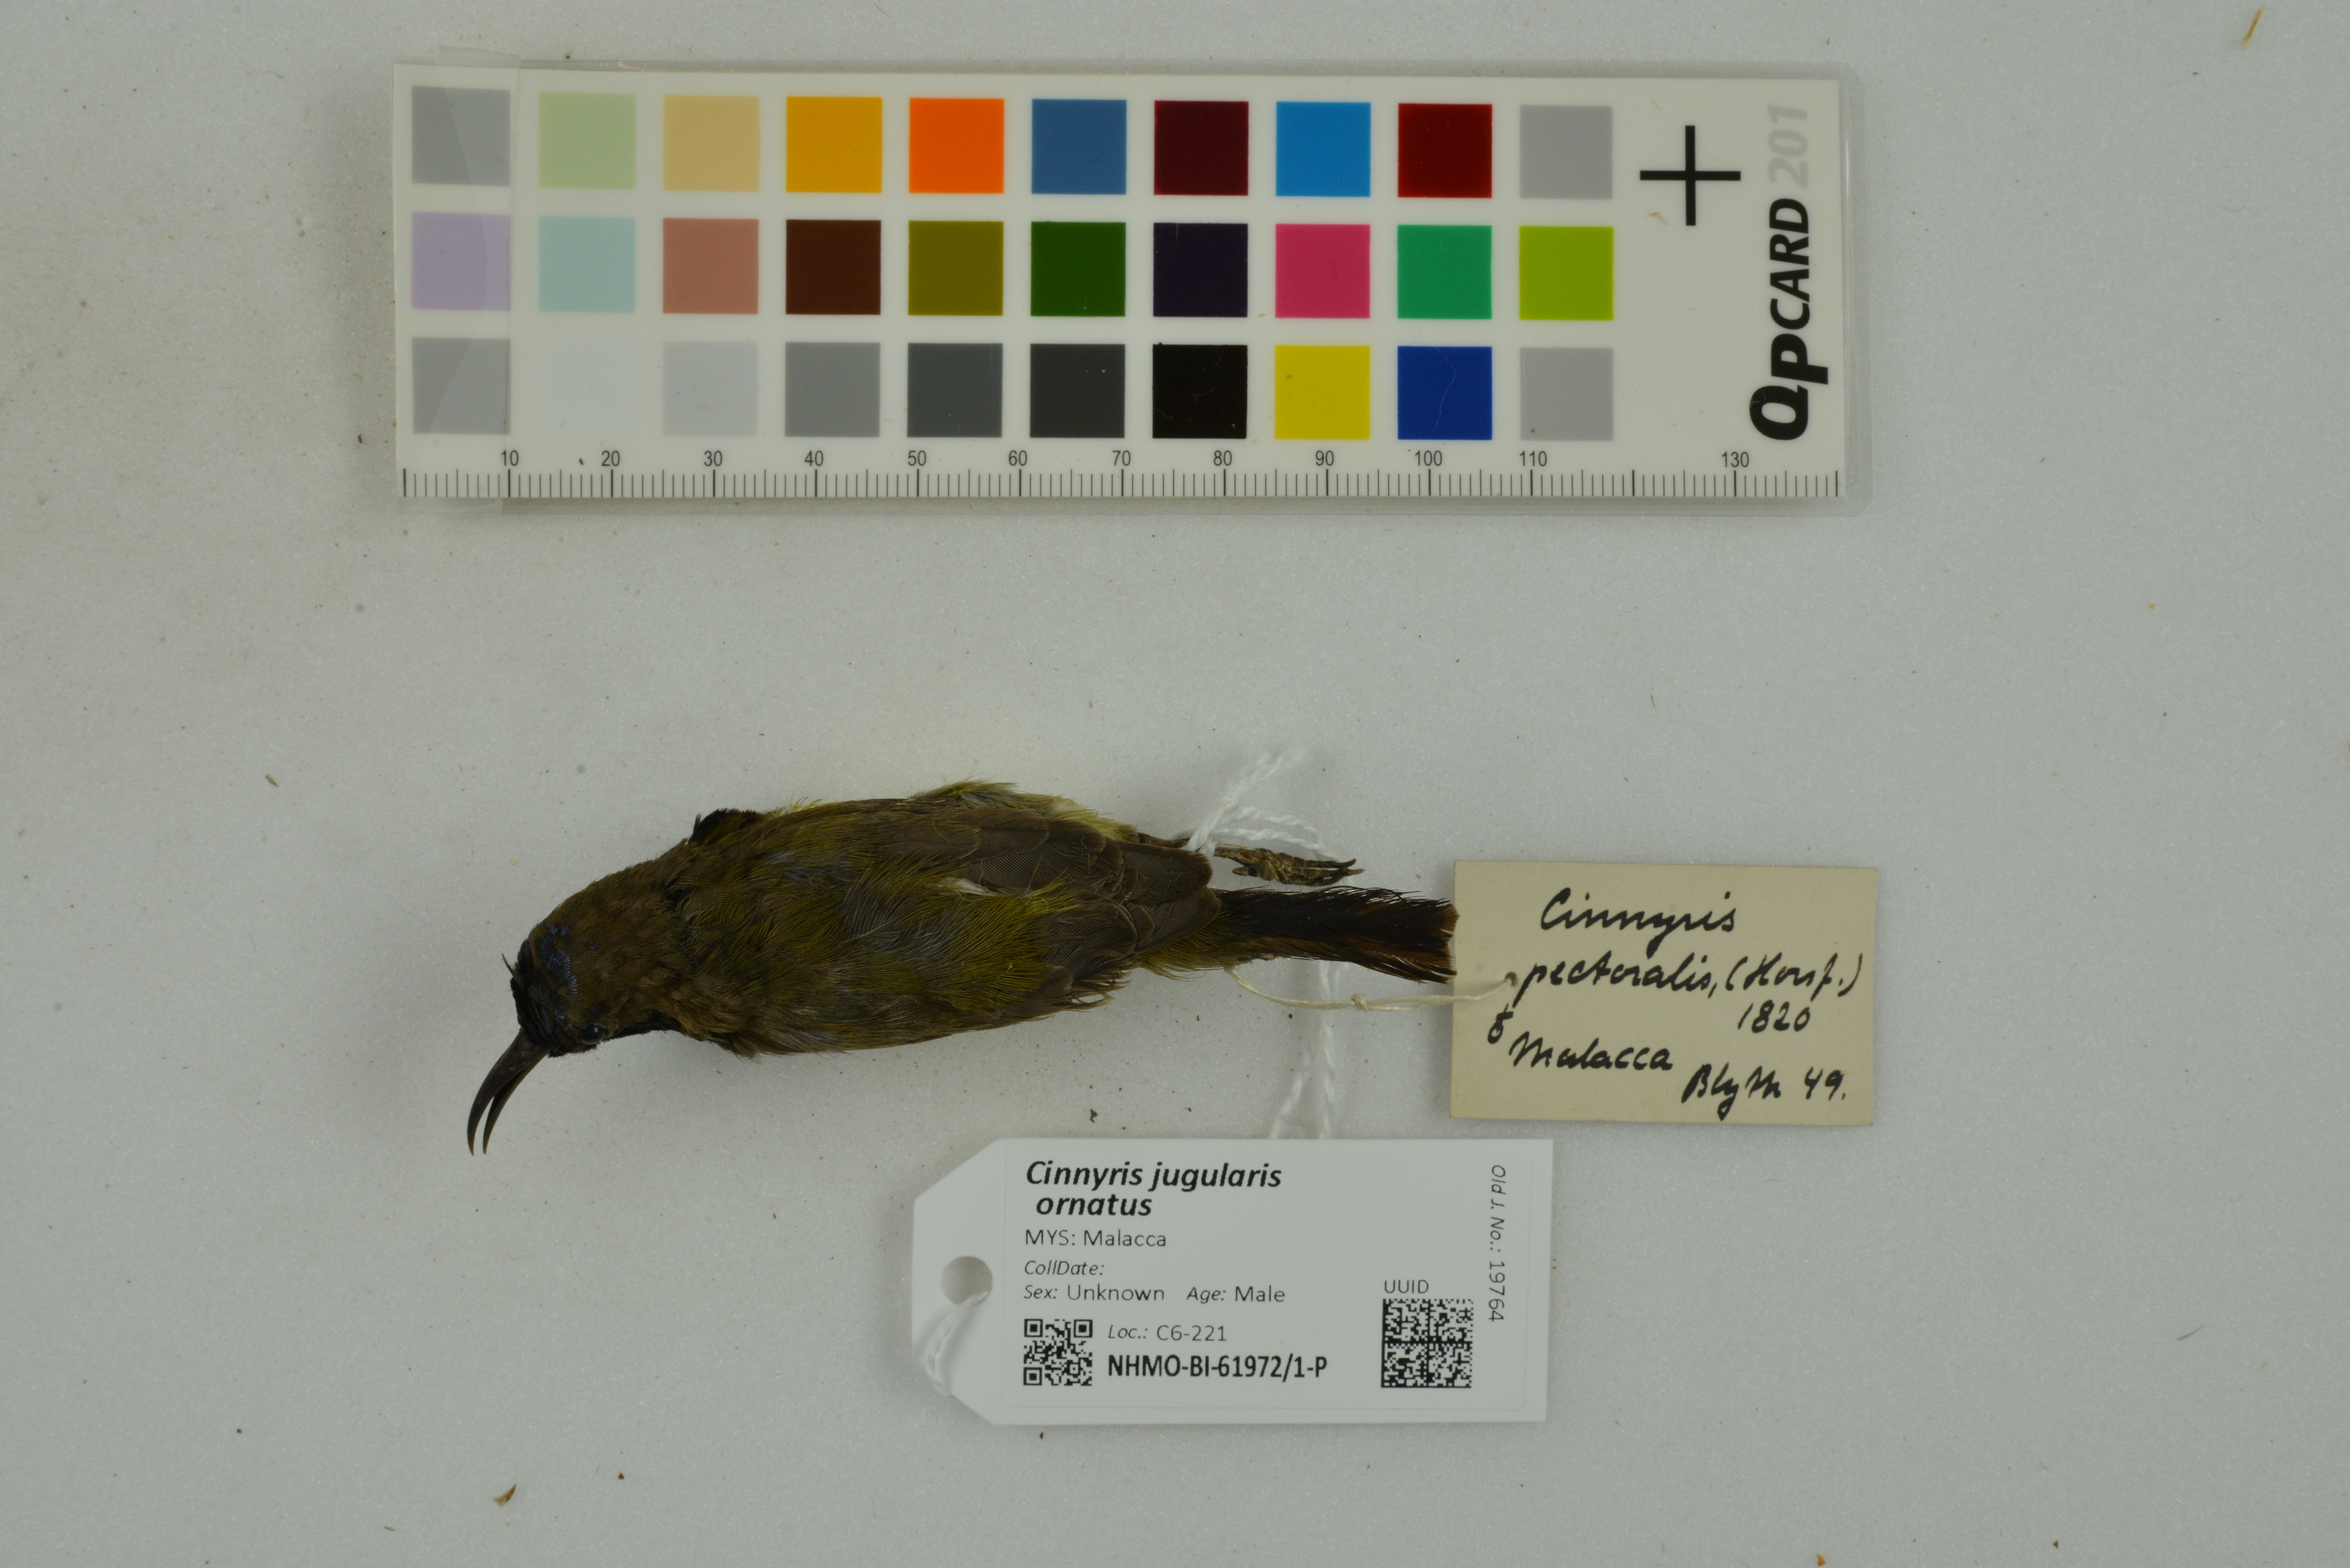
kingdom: Animalia
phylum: Chordata
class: Aves
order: Passeriformes
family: Nectariniidae
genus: Cinnyris
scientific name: Cinnyris jugularis
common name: Olive-backed sunbird
